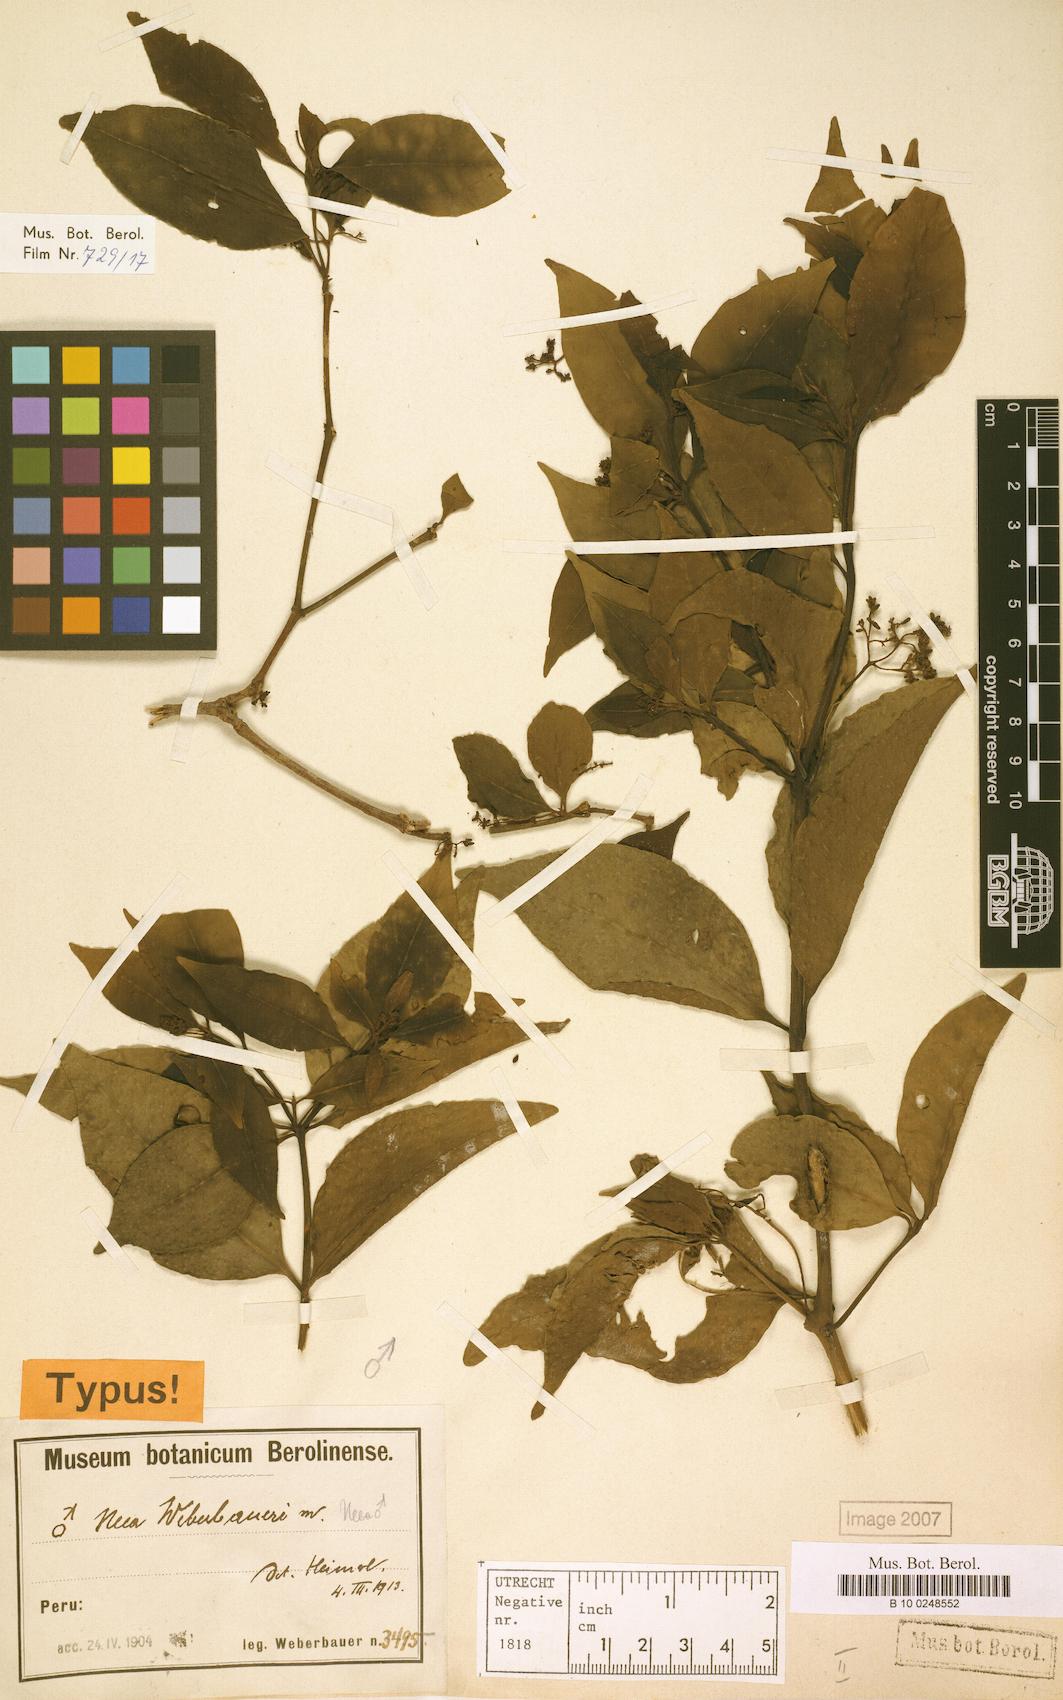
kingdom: Plantae
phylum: Tracheophyta
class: Magnoliopsida
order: Caryophyllales
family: Nyctaginaceae
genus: Neea
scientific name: Neea spruceana
